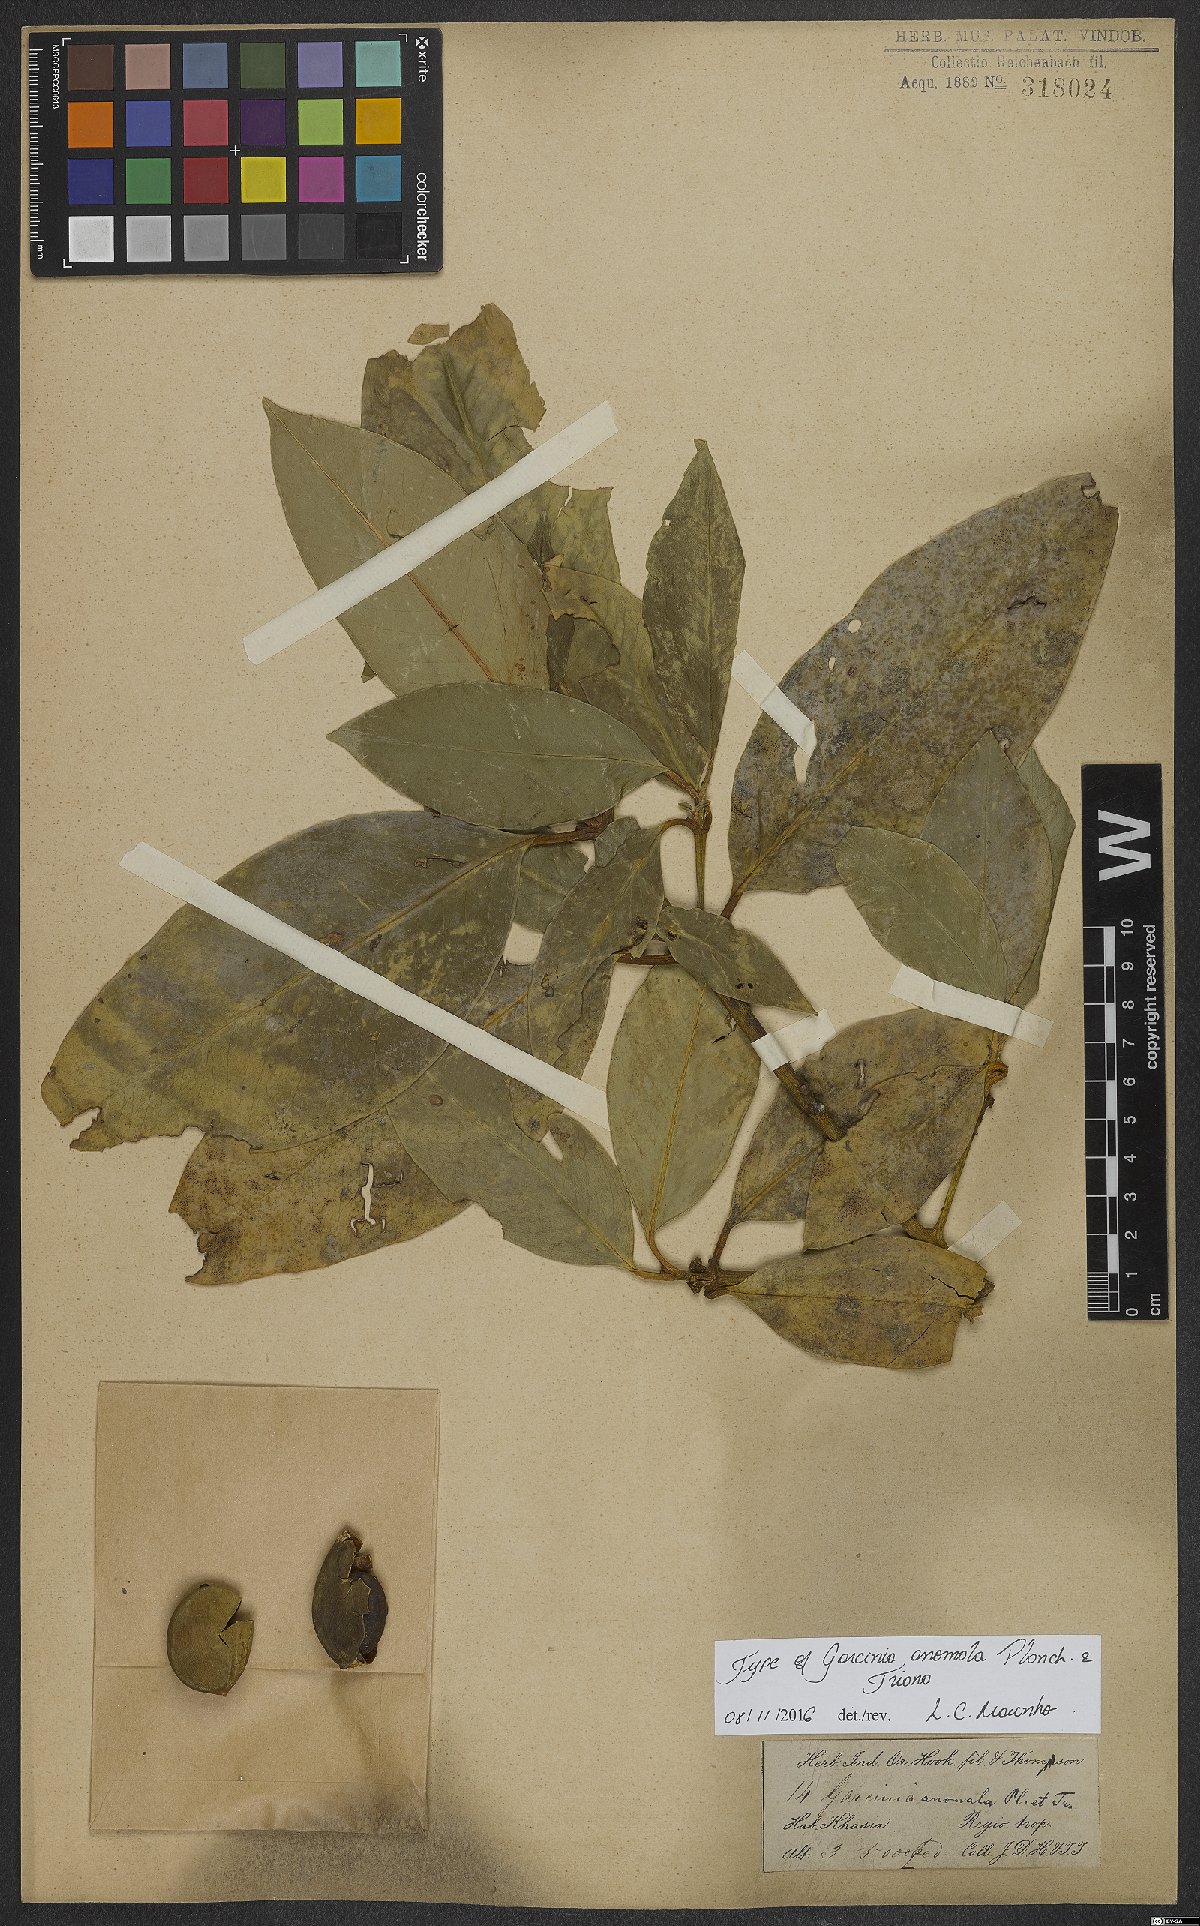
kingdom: Plantae
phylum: Tracheophyta
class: Magnoliopsida
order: Malpighiales
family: Clusiaceae
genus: Garcinia
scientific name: Garcinia anomala
